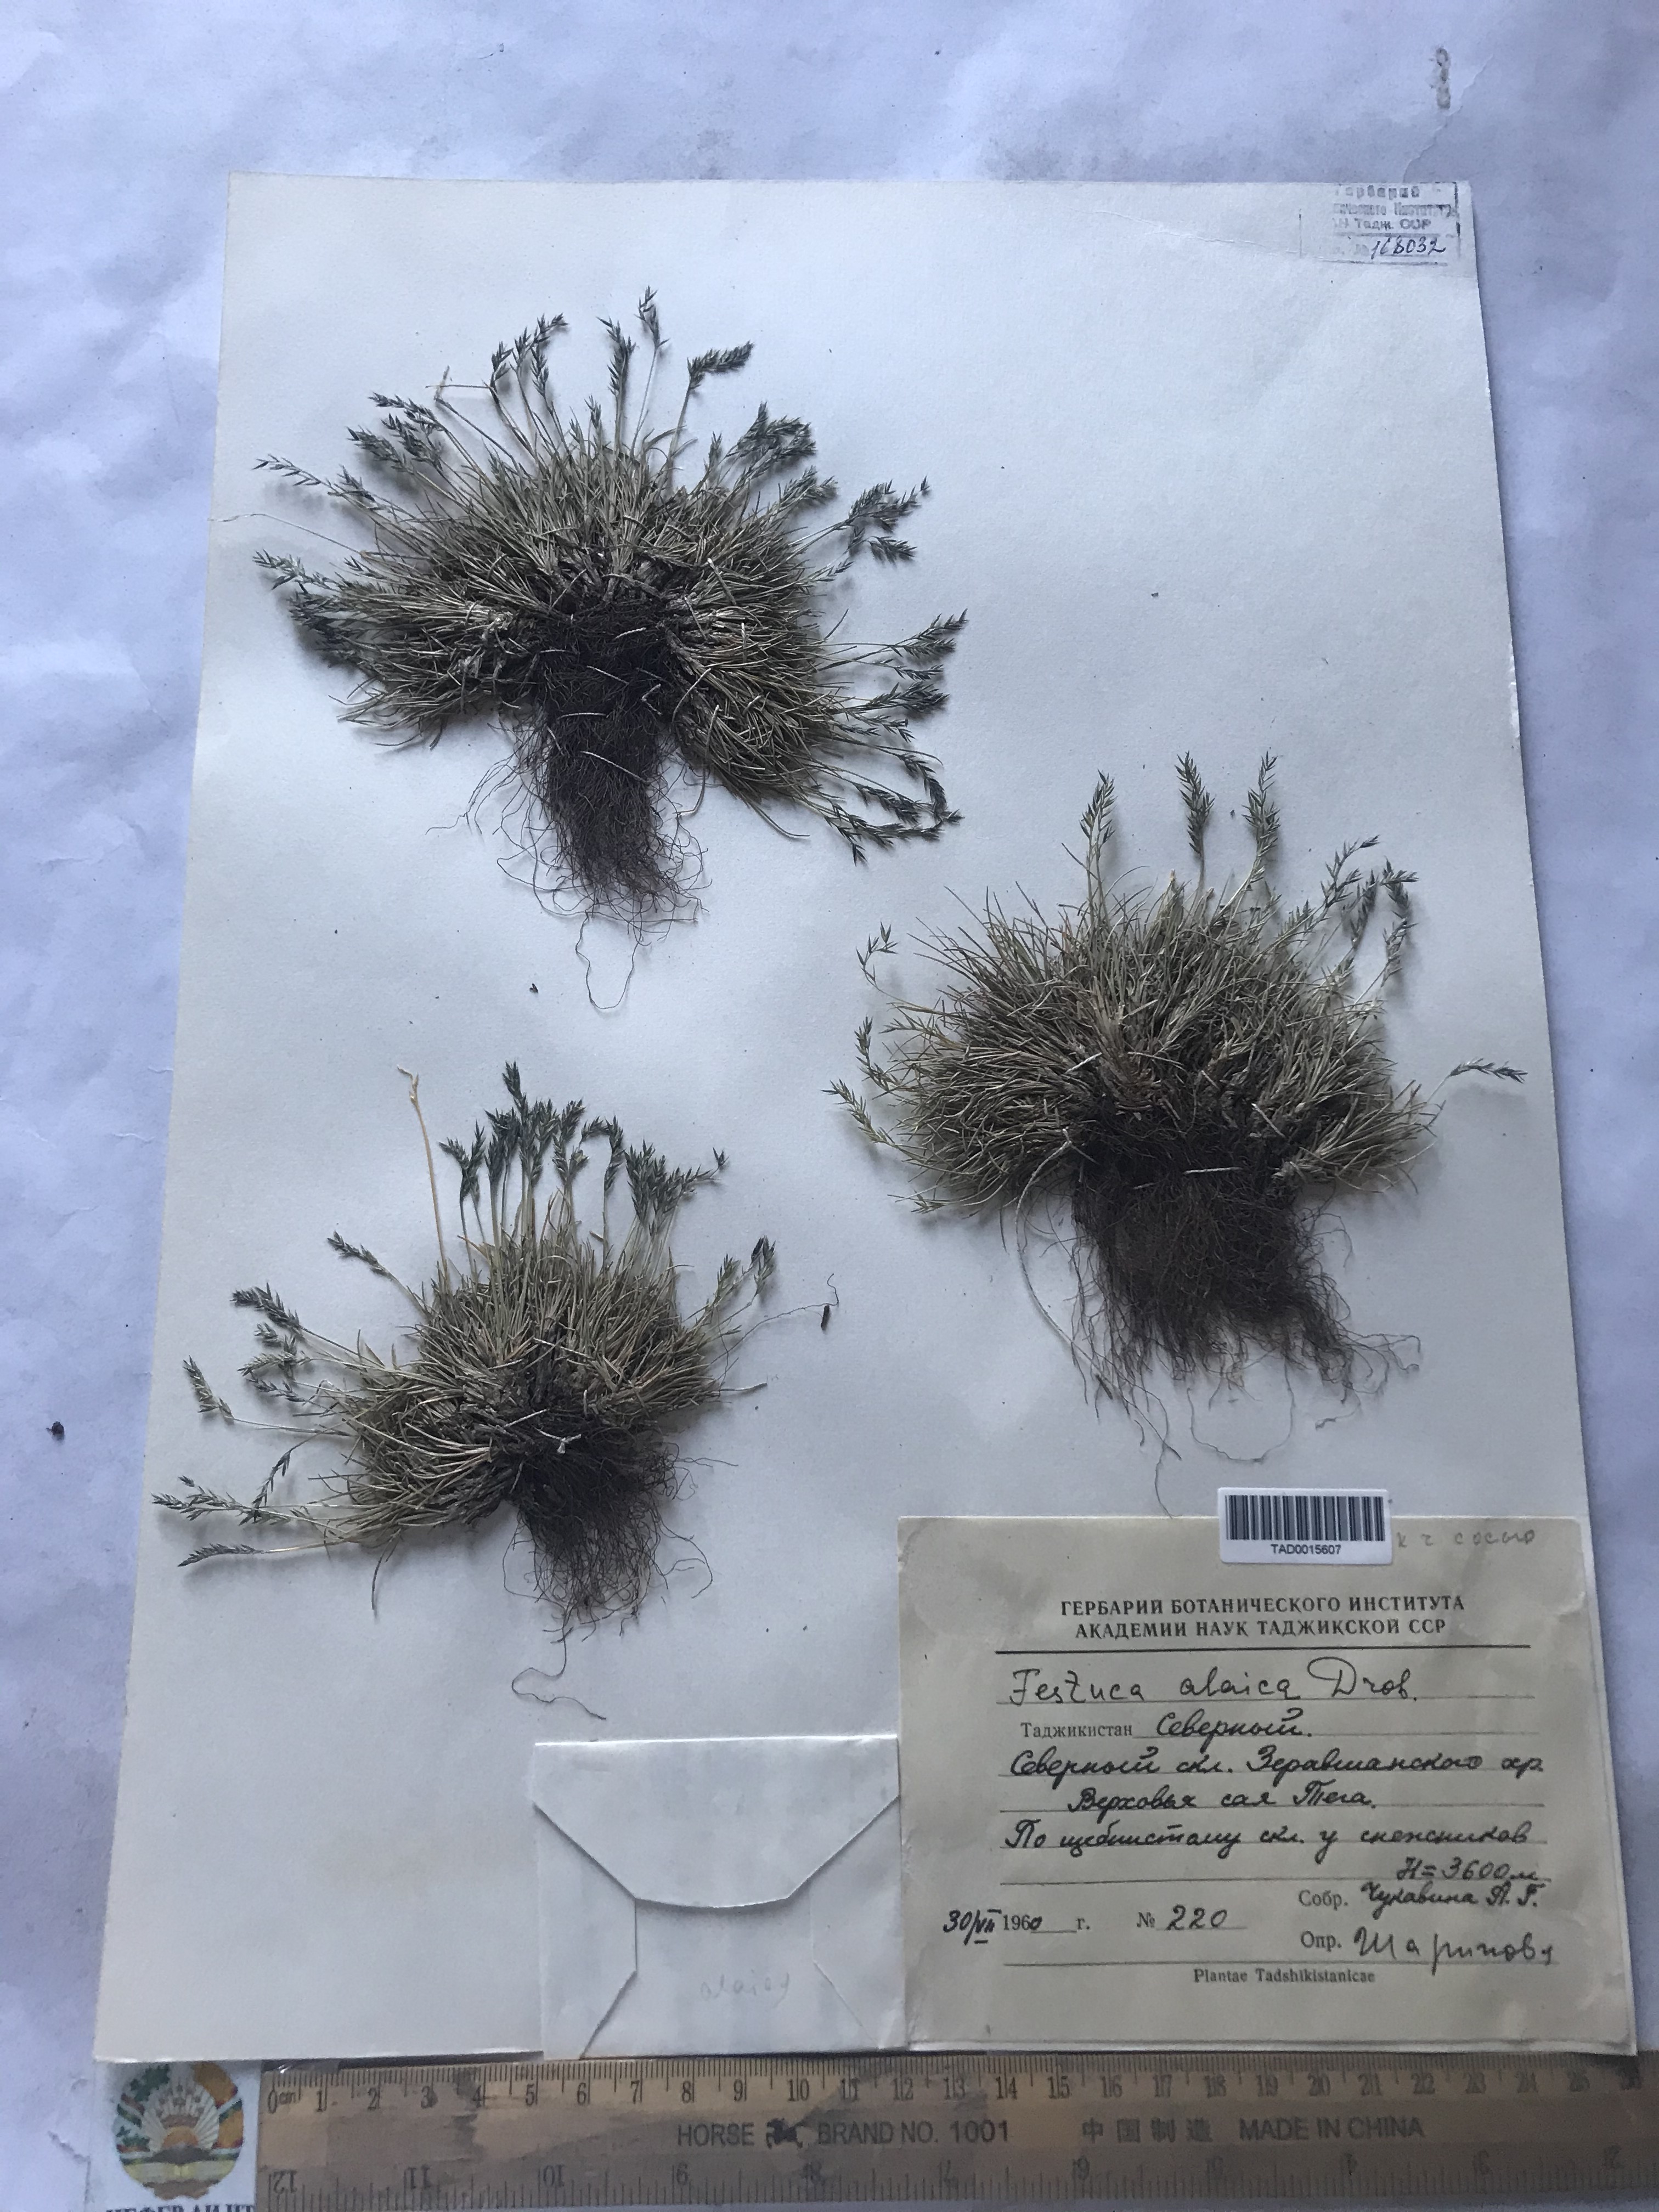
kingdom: Plantae
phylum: Tracheophyta
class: Liliopsida
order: Poales
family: Poaceae
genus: Festuca
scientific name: Festuca alaica
